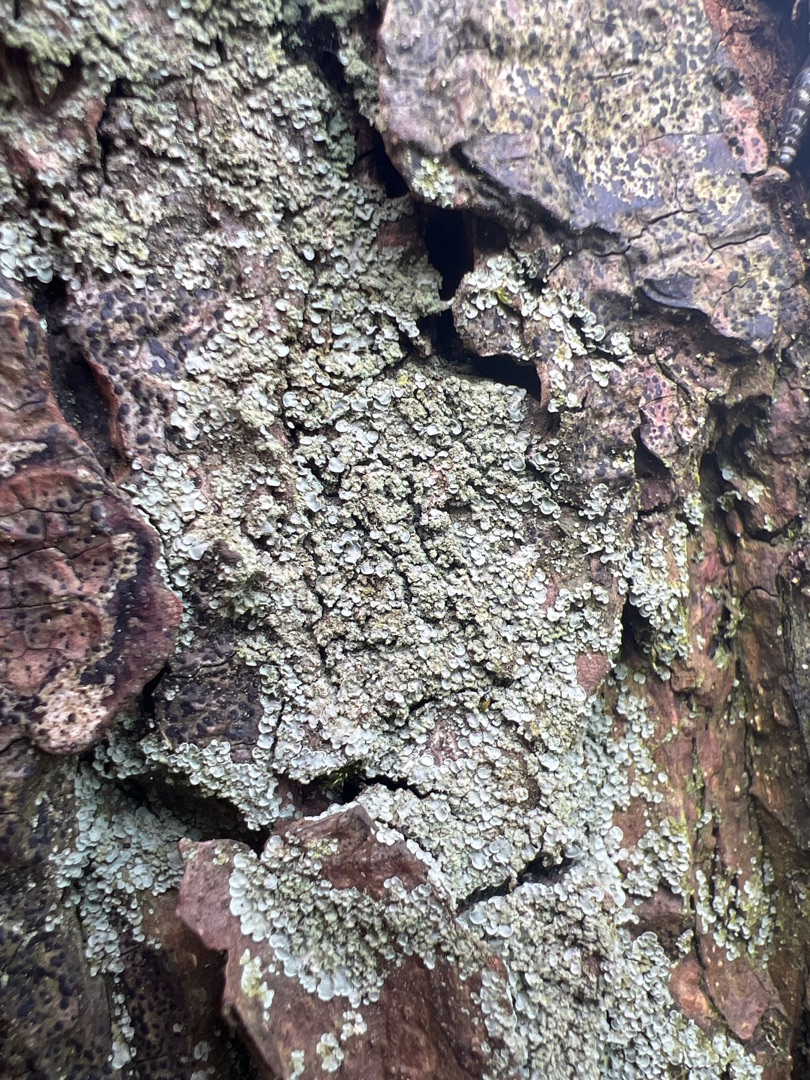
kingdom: Fungi
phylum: Ascomycota
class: Eurotiomycetes
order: Verrucariales
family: Verrucariaceae
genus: Normandina
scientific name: Normandina pulchella
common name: Smuk konfettilav
